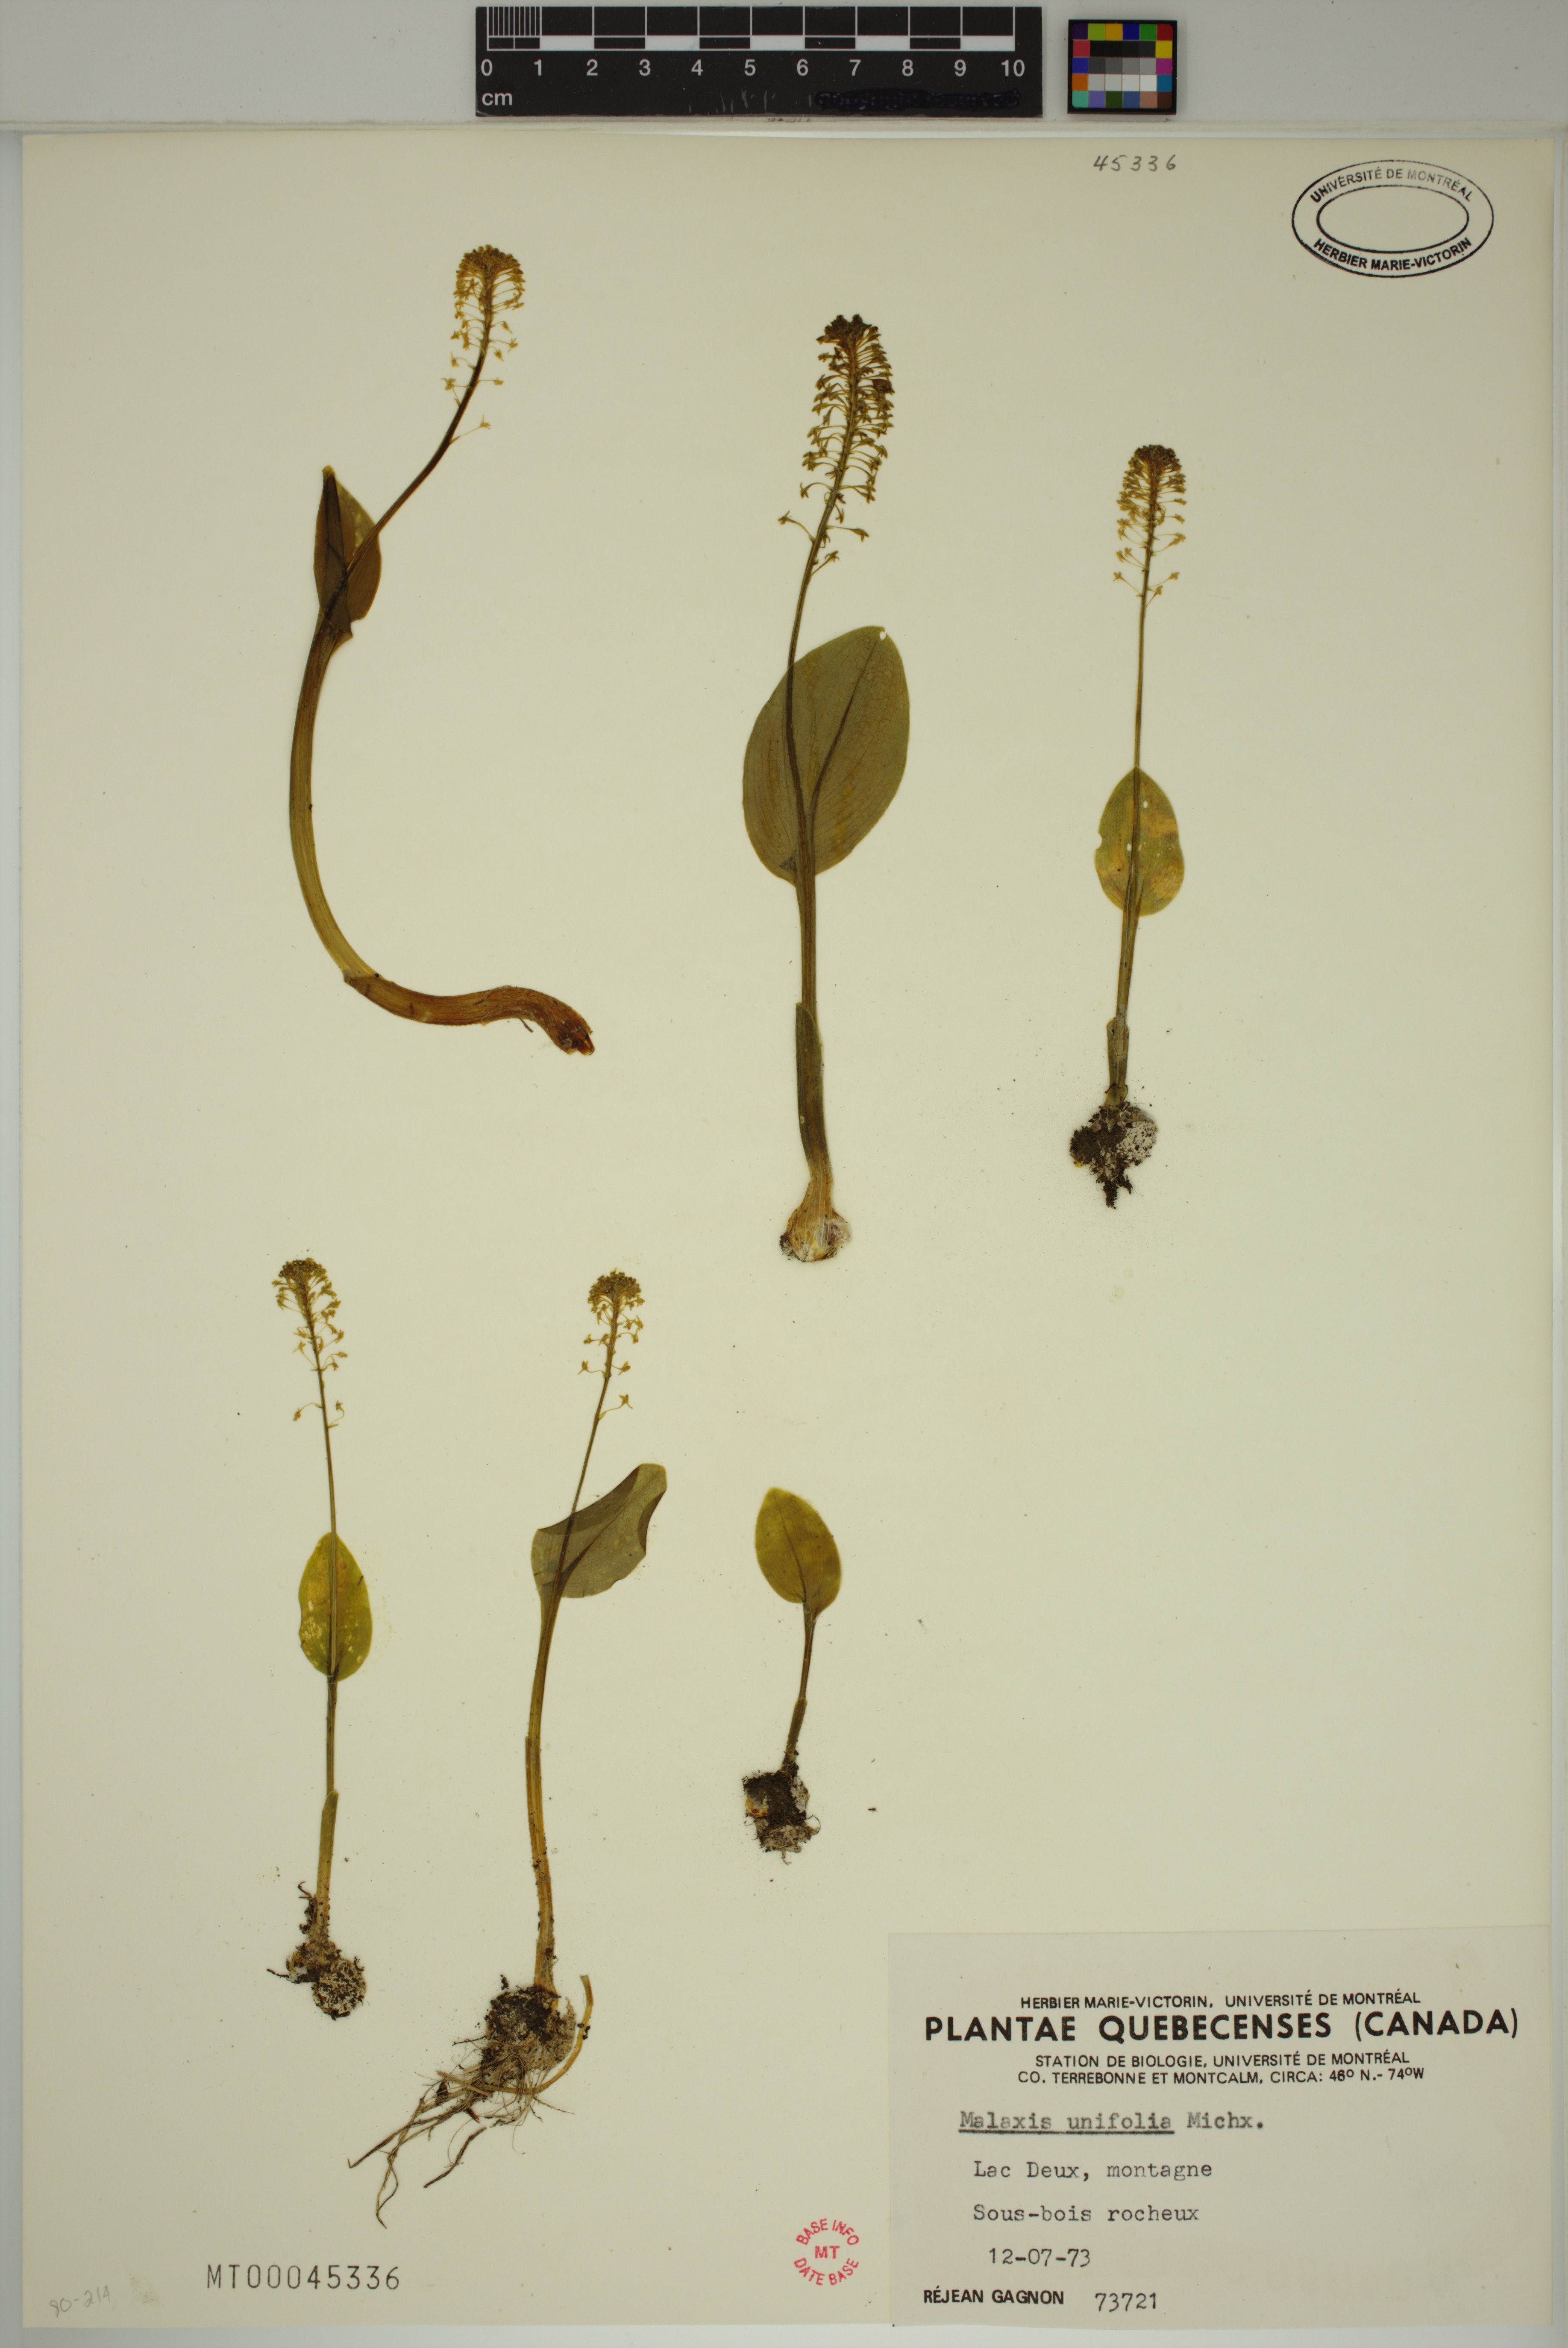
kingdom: Plantae
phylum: Tracheophyta
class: Liliopsida
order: Asparagales
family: Orchidaceae
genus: Malaxis
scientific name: Malaxis unifolia
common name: Green adder's-mouth
